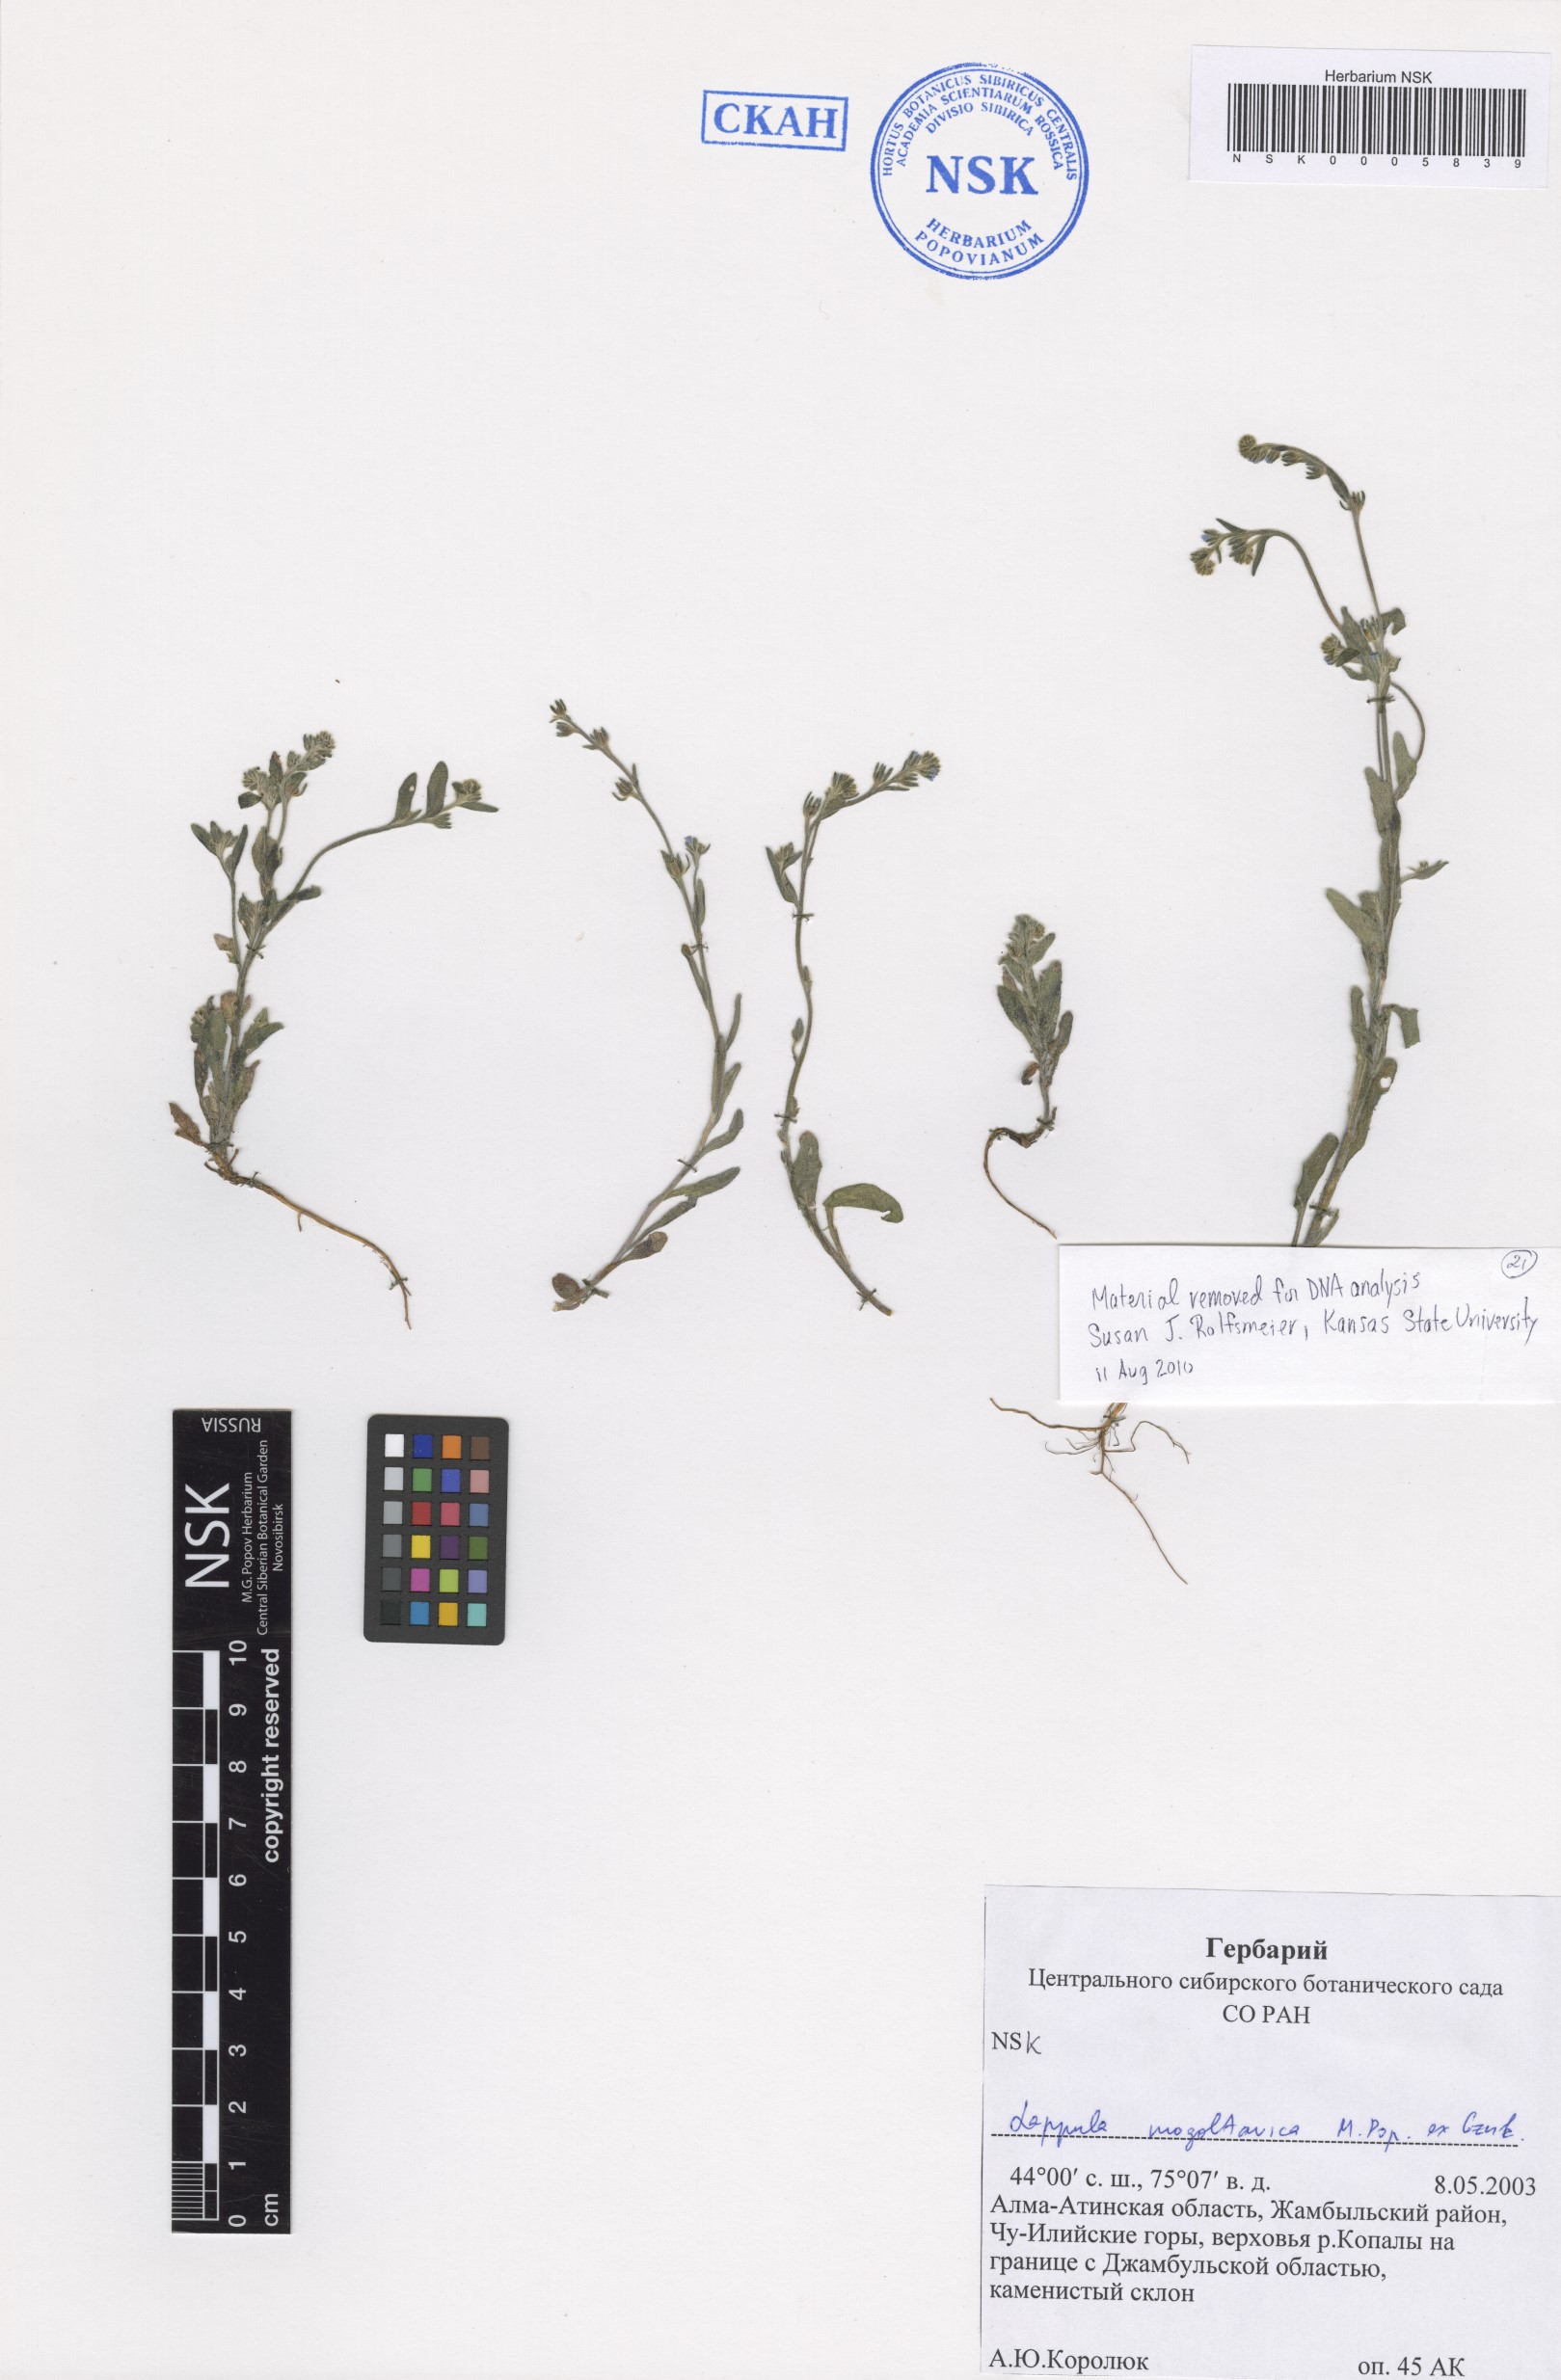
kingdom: Plantae
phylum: Tracheophyta
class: Magnoliopsida
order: Boraginales
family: Boraginaceae
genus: Lappula
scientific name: Lappula mogoltavica
